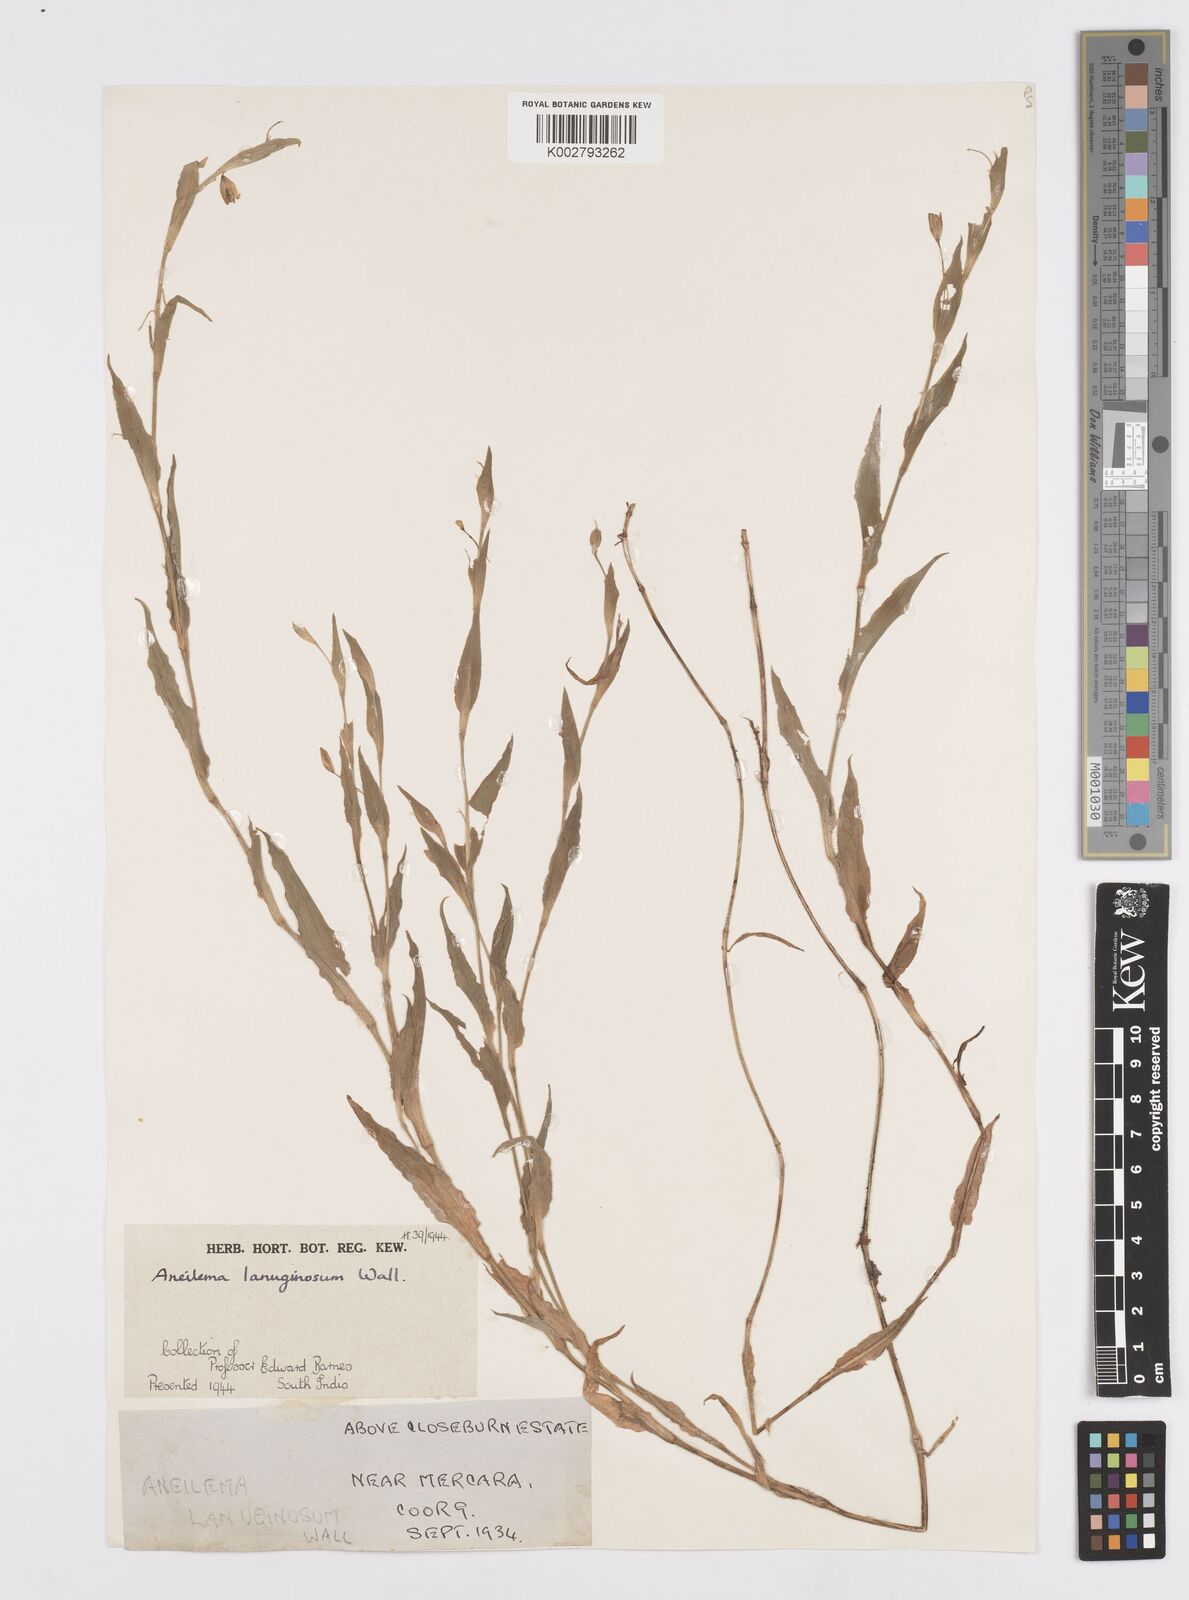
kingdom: Plantae
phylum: Tracheophyta
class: Liliopsida
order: Commelinales
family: Commelinaceae
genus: Murdannia
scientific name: Murdannia lanuginosa
